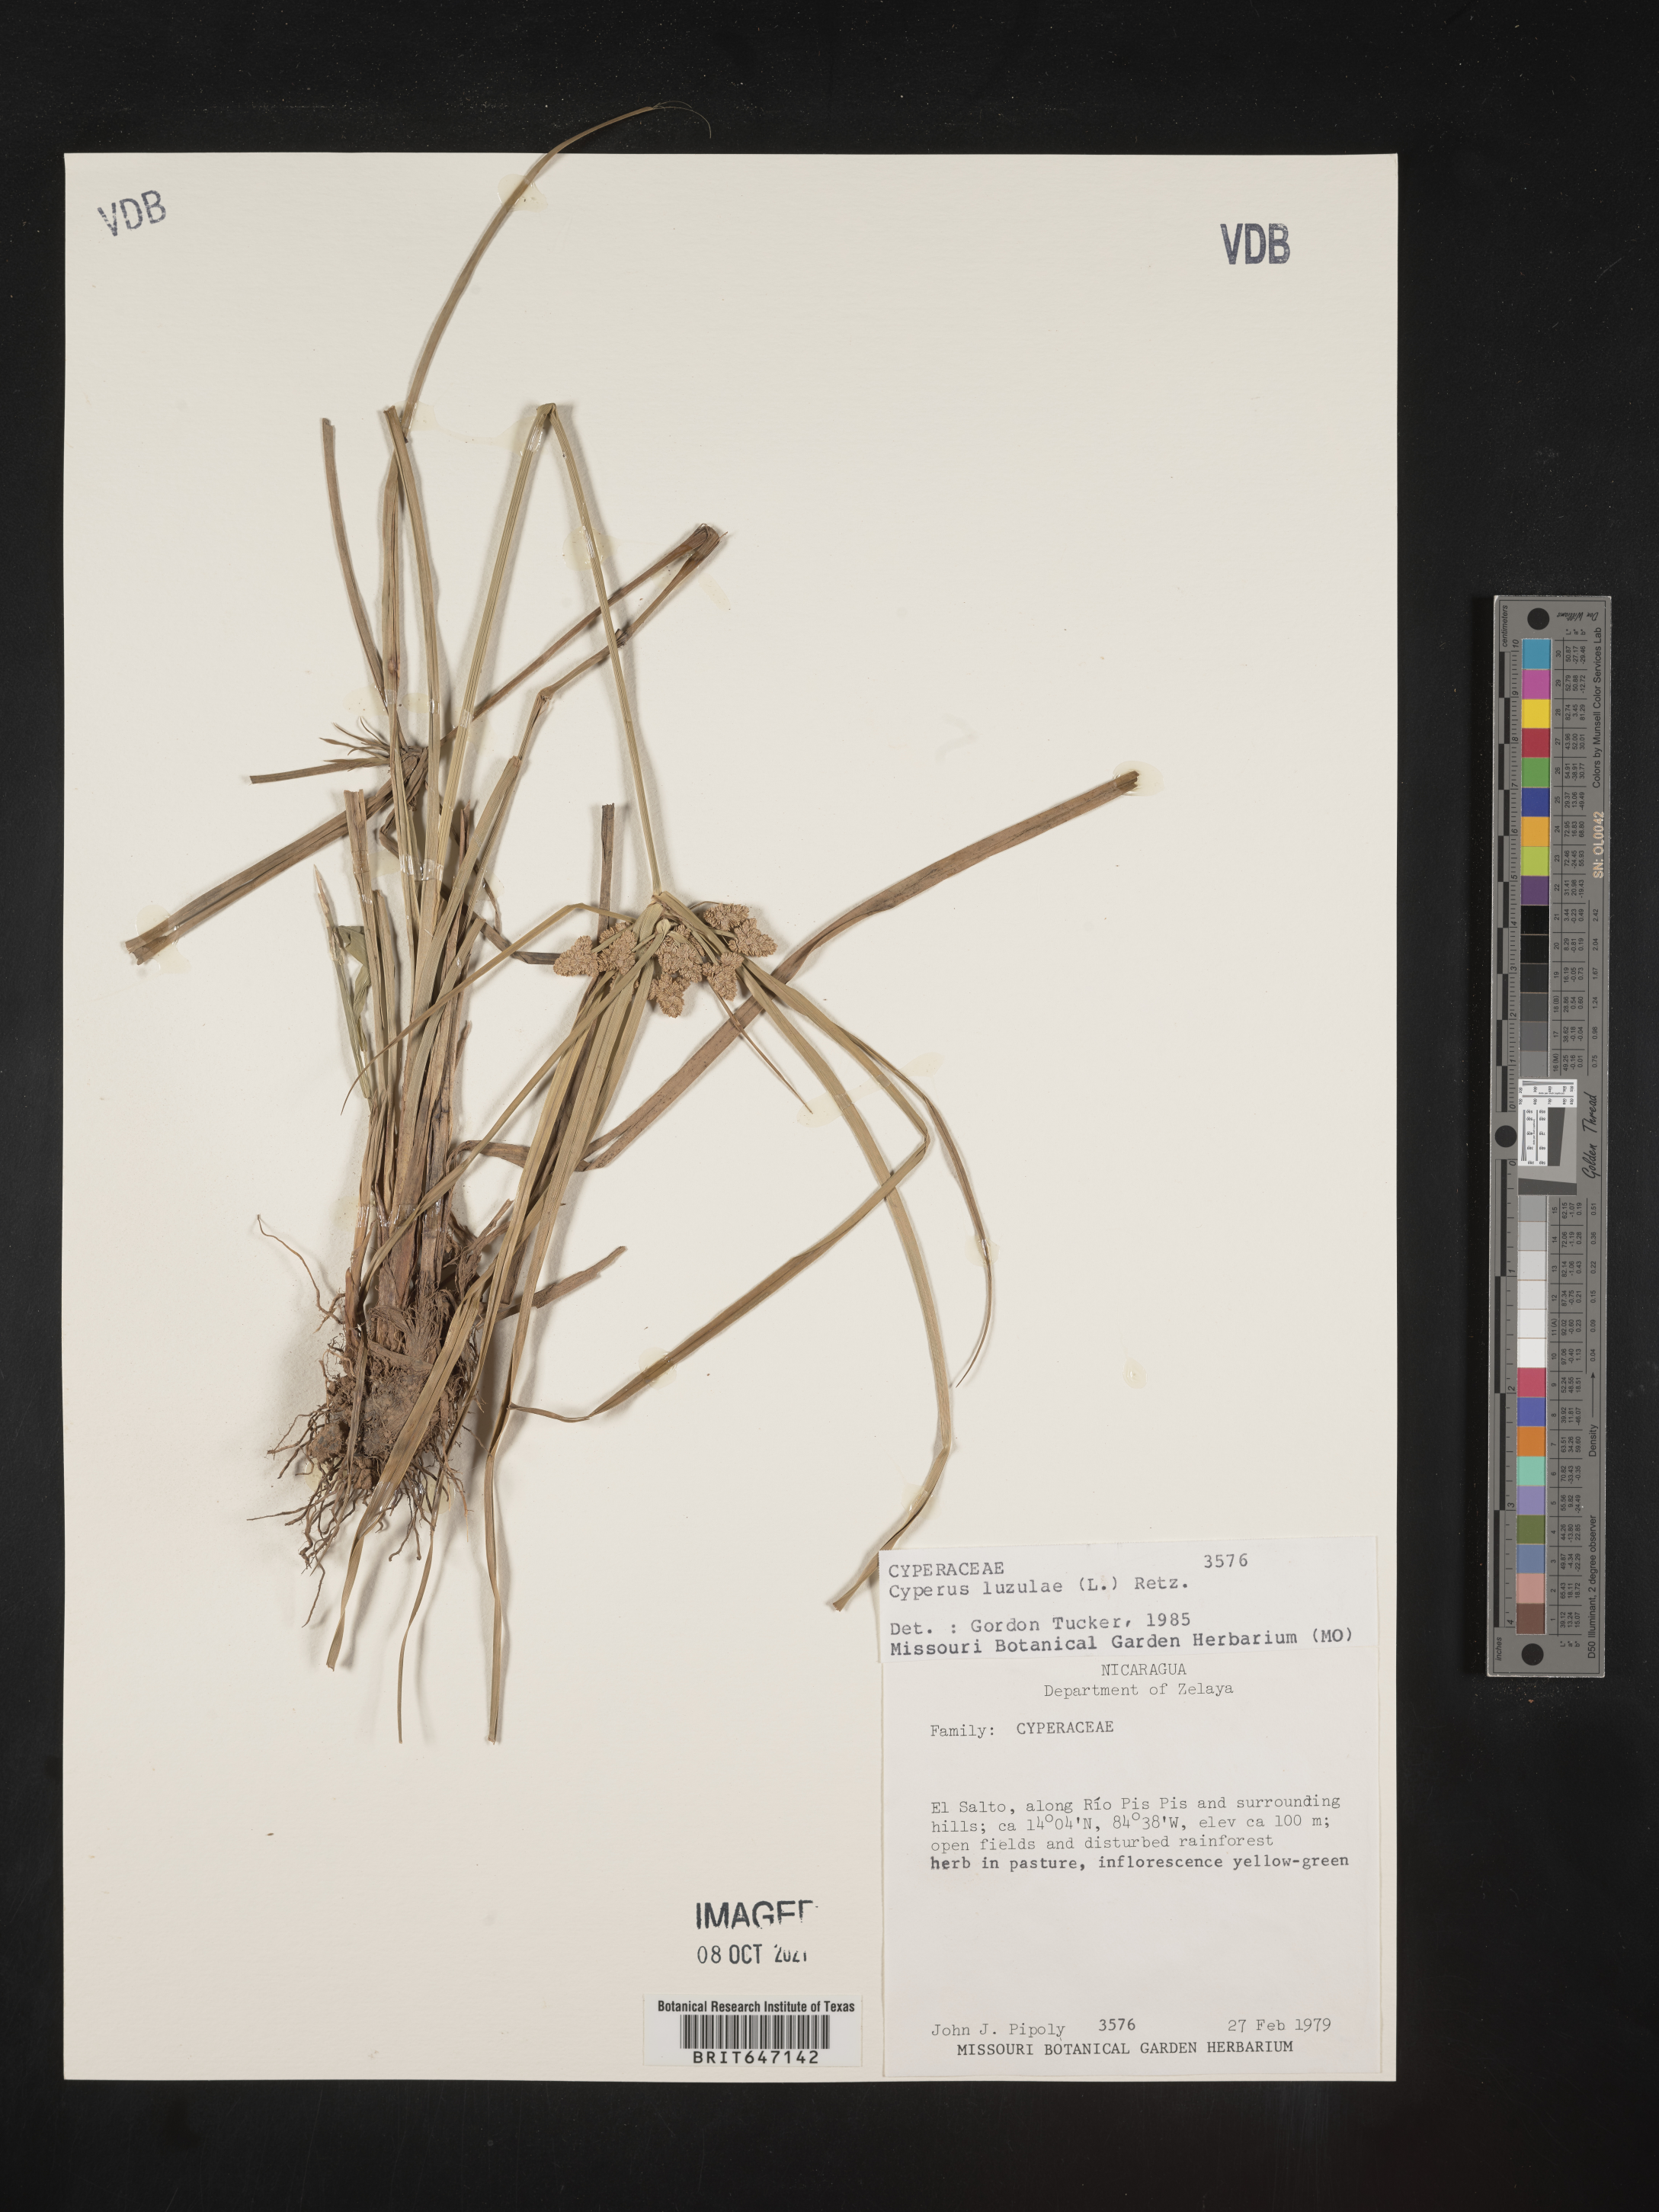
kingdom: Plantae
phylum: Tracheophyta
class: Liliopsida
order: Poales
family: Cyperaceae
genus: Cyperus
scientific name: Cyperus luzulae
